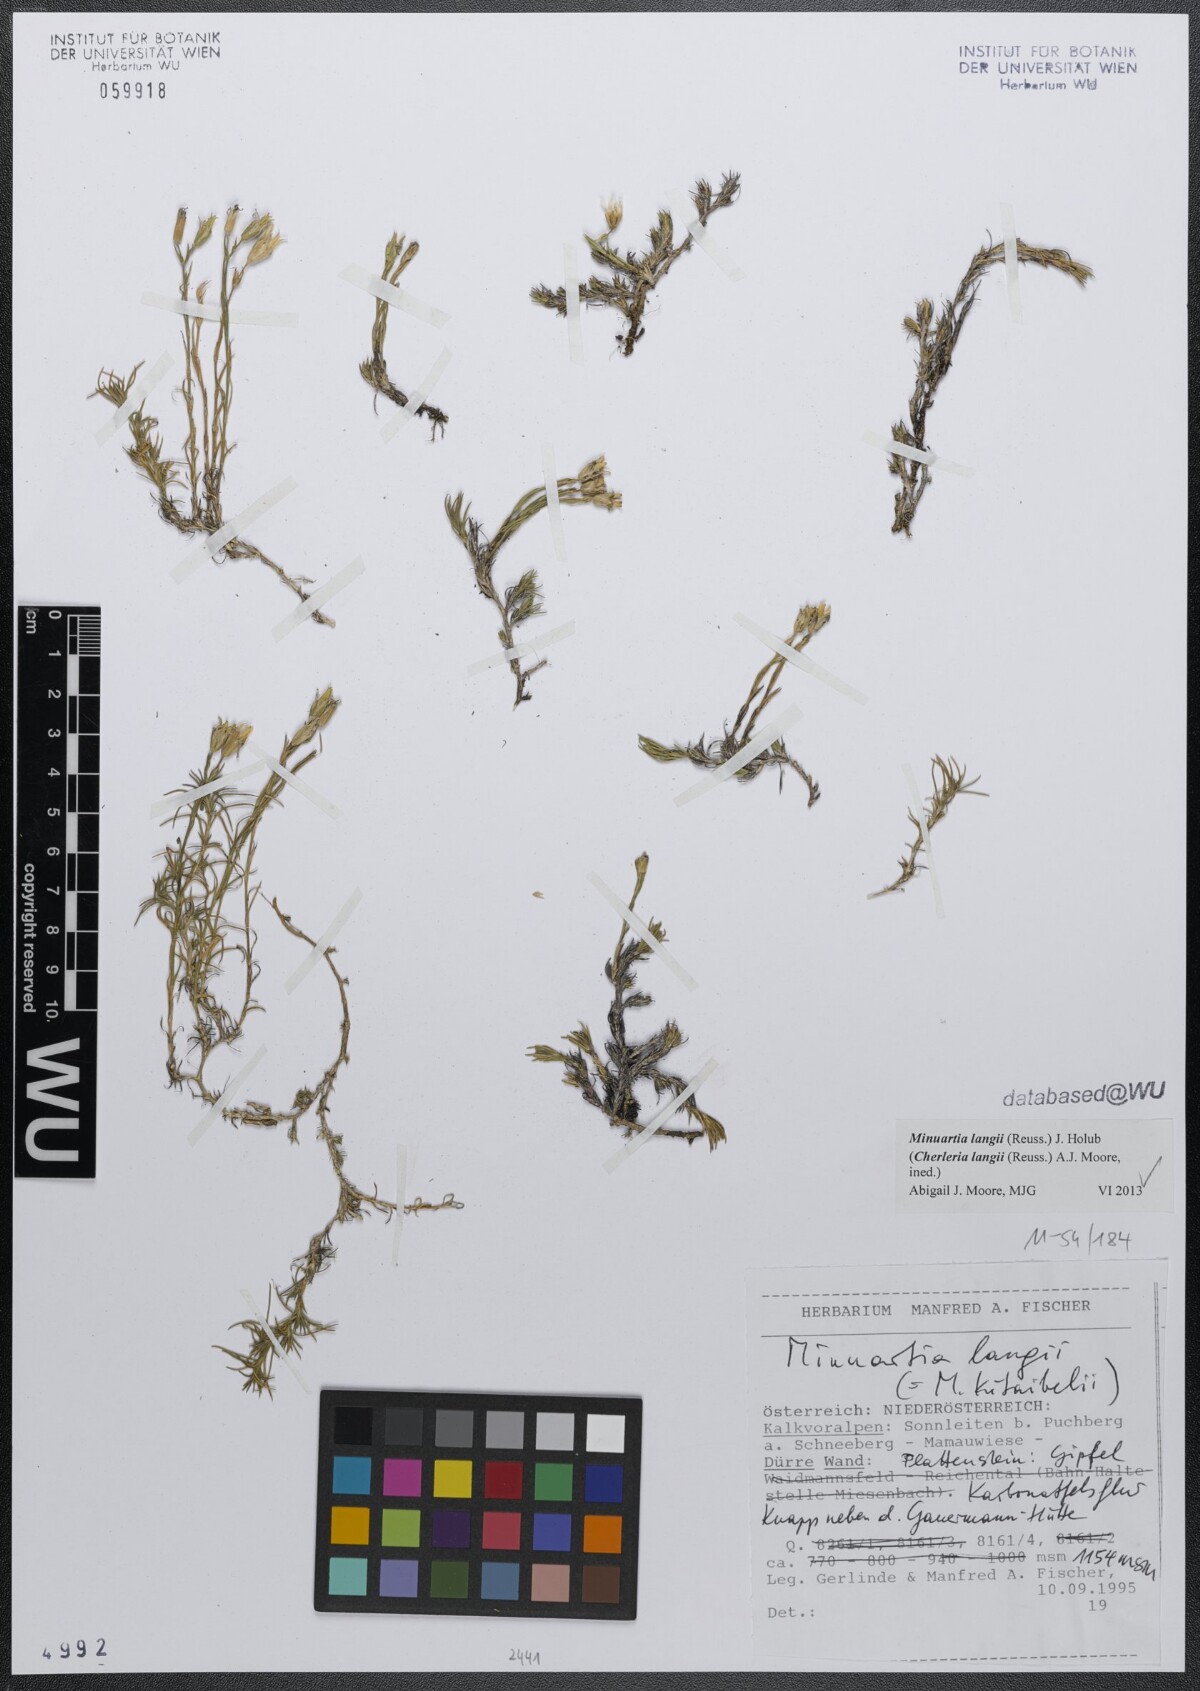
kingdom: Plantae
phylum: Tracheophyta
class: Magnoliopsida
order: Caryophyllales
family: Caryophyllaceae
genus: Cherleria
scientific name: Cherleria langii
